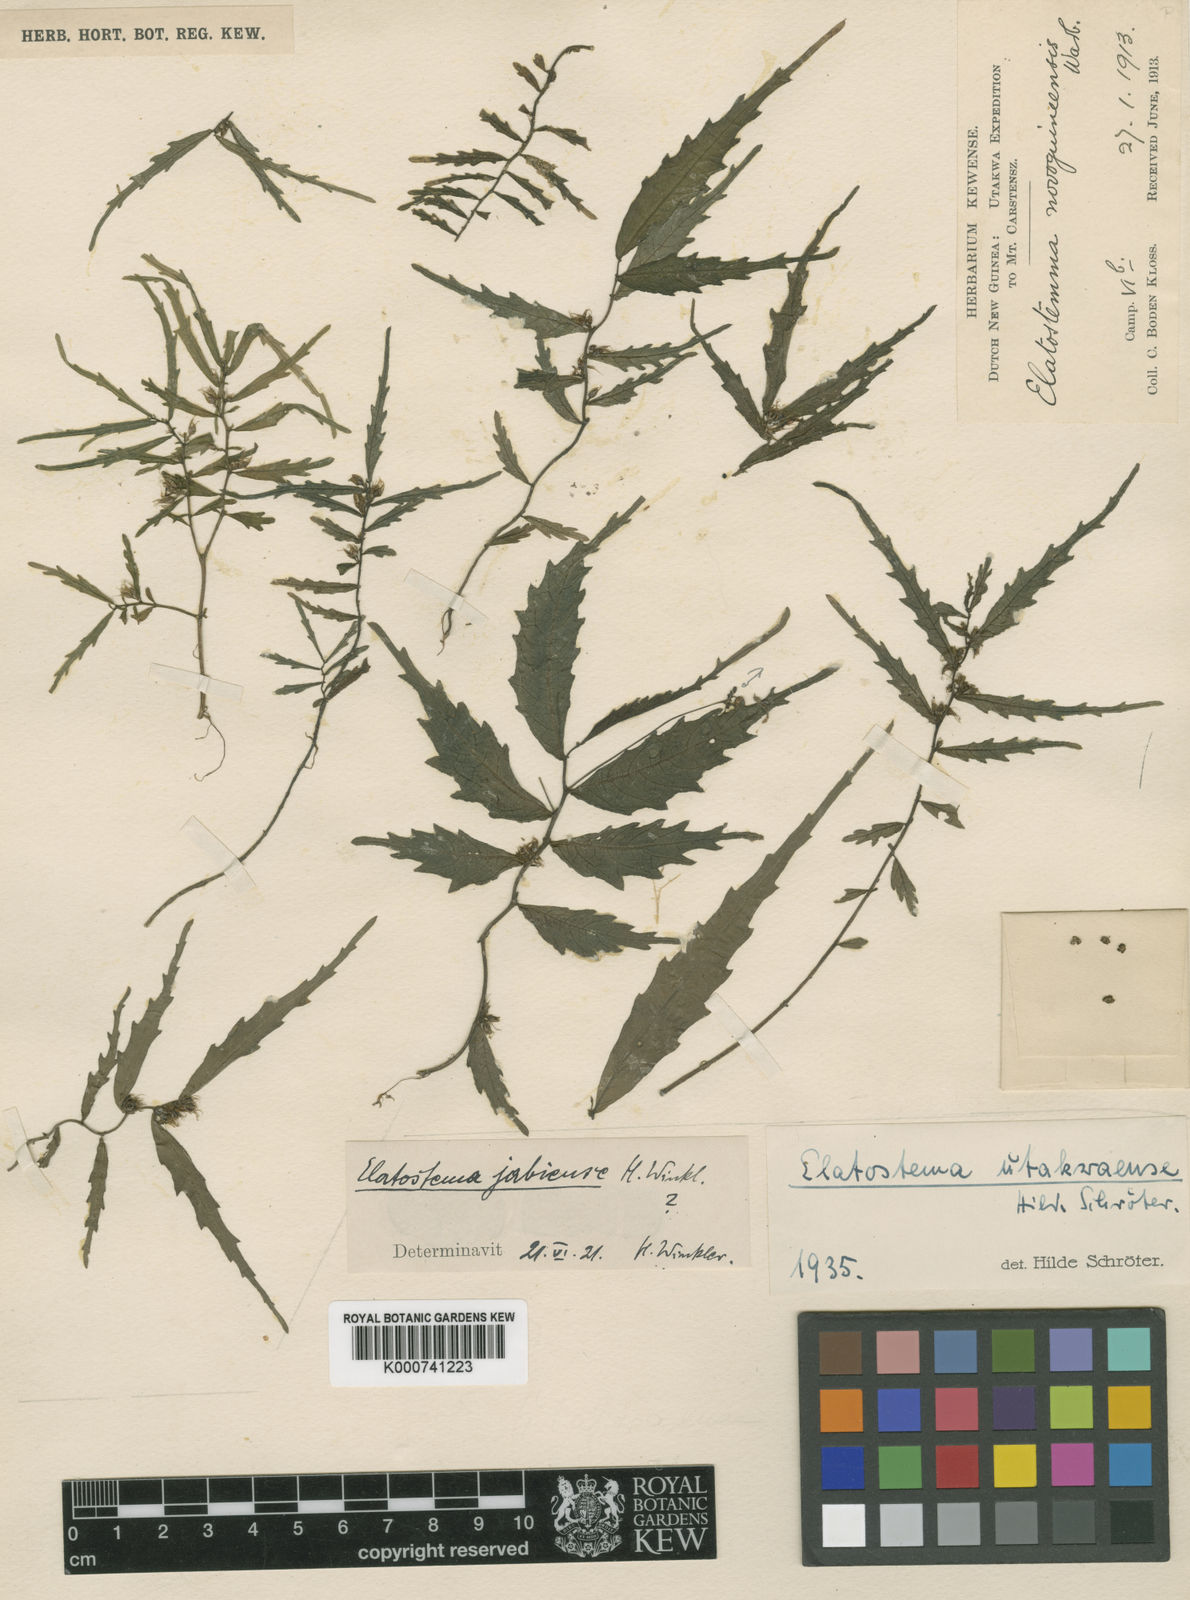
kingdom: Plantae
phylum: Tracheophyta
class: Magnoliopsida
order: Rosales
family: Urticaceae
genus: Elatostema
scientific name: Elatostema utakwaense
